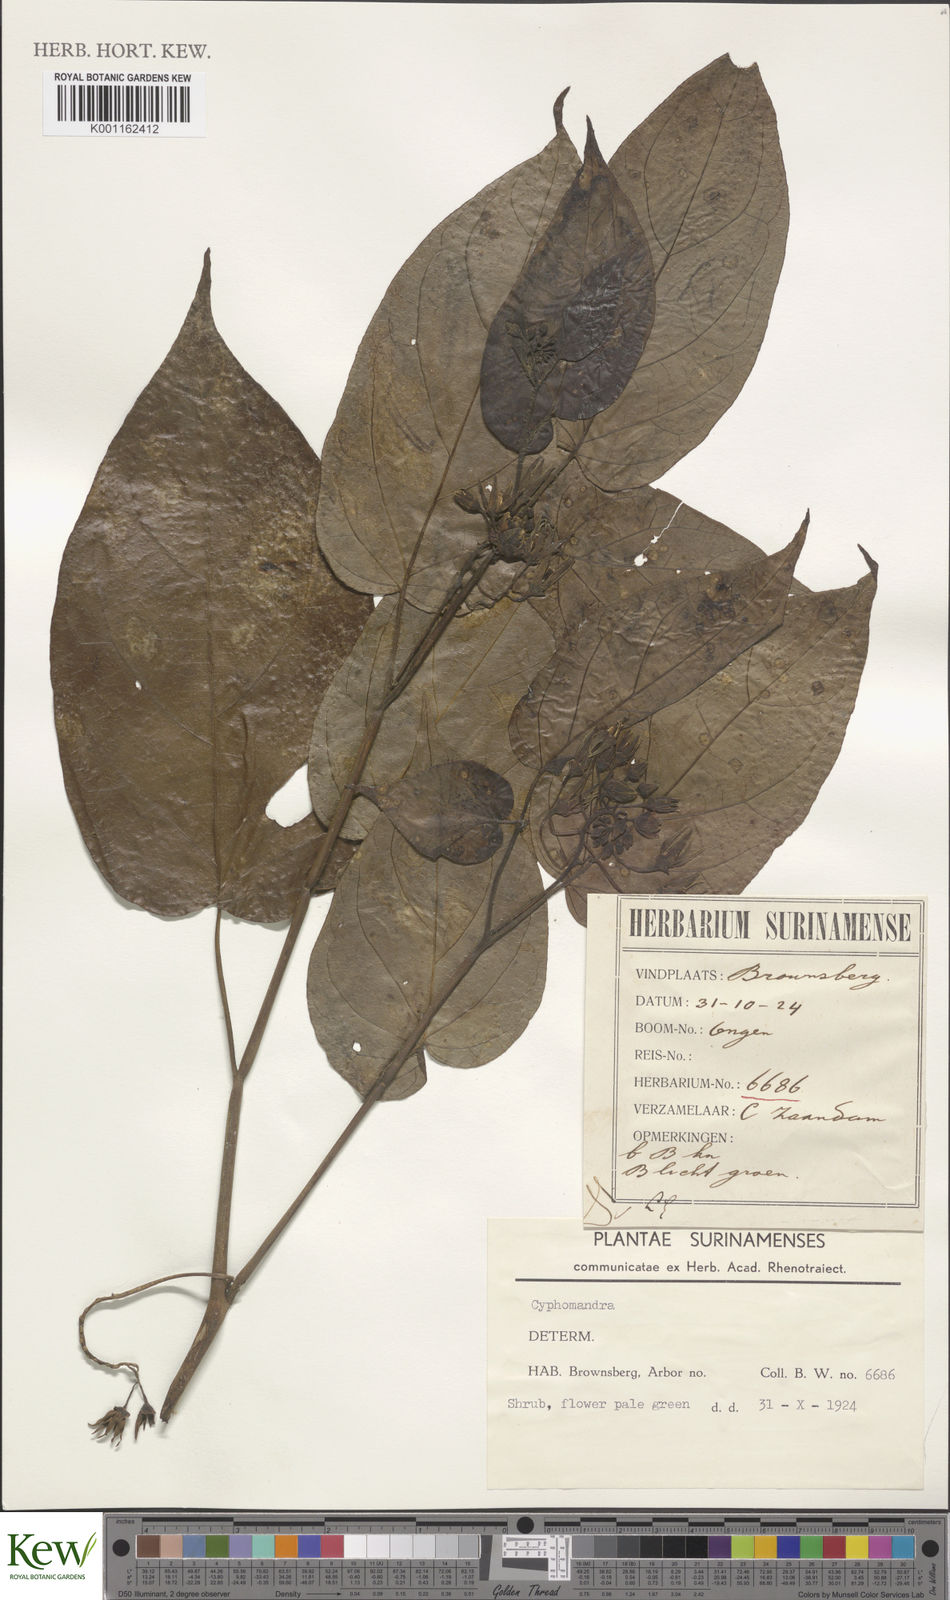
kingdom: Plantae
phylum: Tracheophyta
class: Magnoliopsida
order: Solanales
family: Solanaceae
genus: Solanum
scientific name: Solanum
